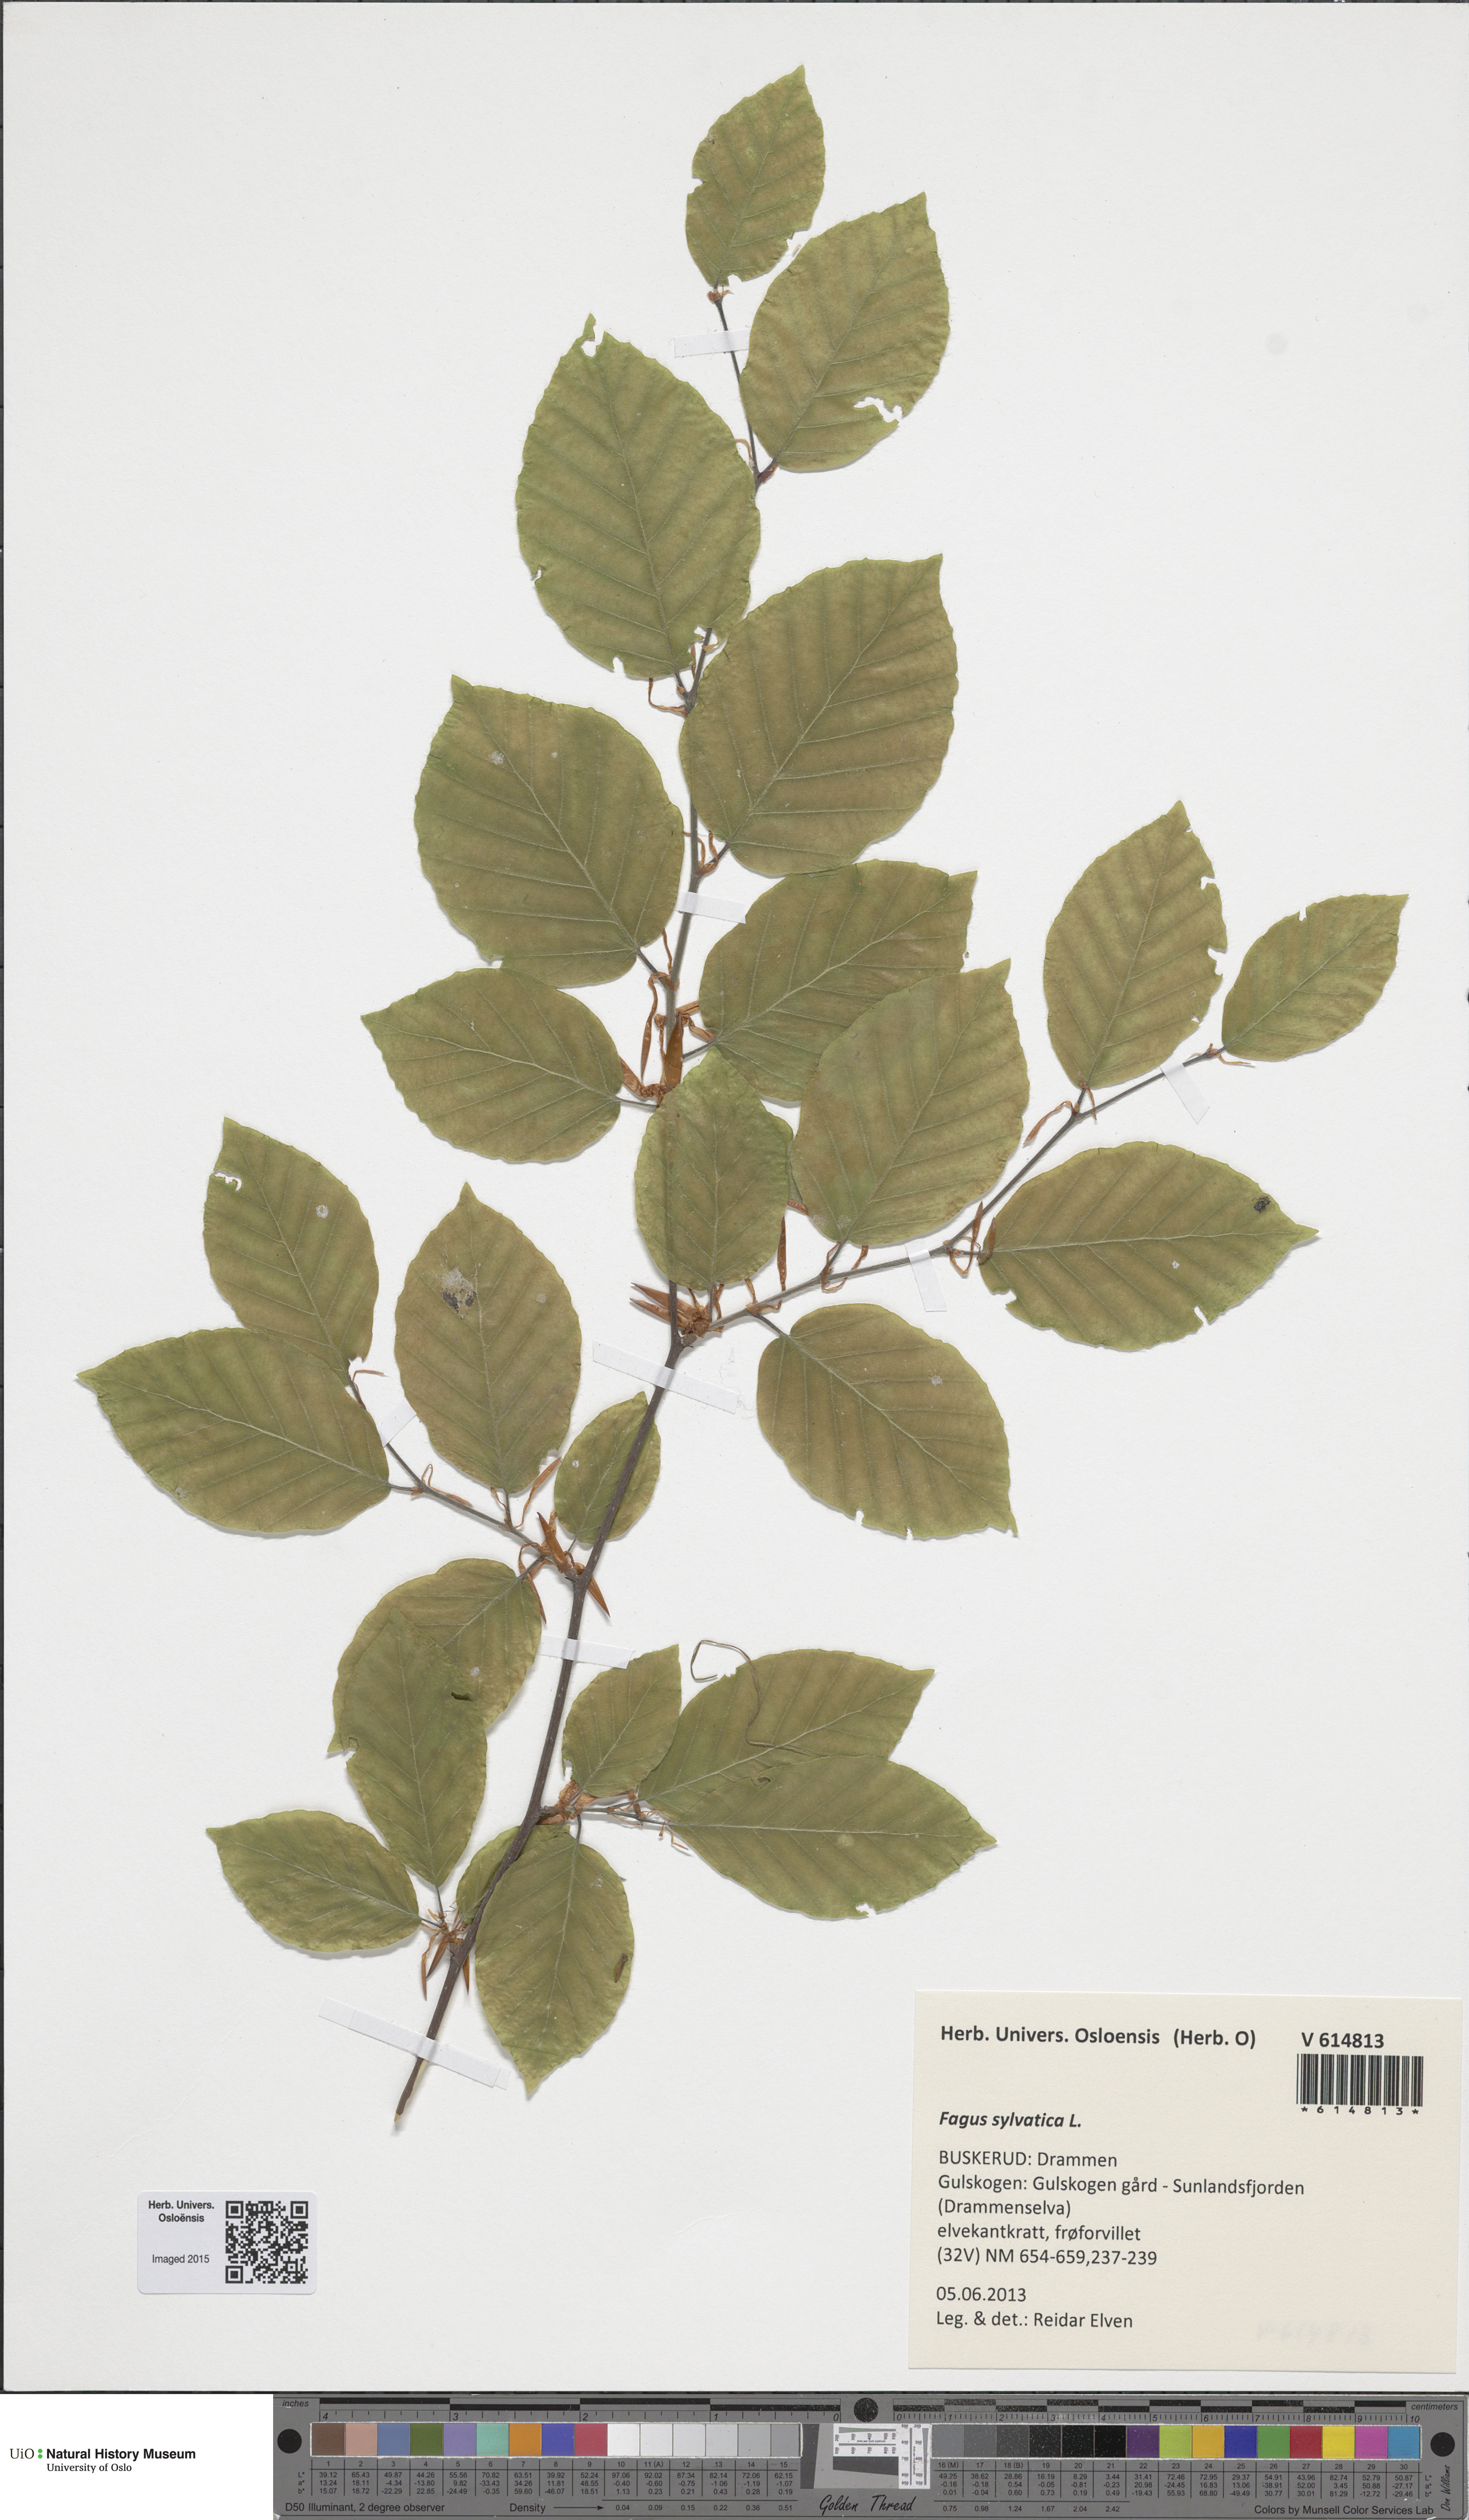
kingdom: Plantae
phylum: Tracheophyta
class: Magnoliopsida
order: Fagales
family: Fagaceae
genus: Fagus
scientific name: Fagus sylvatica
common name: Beech
